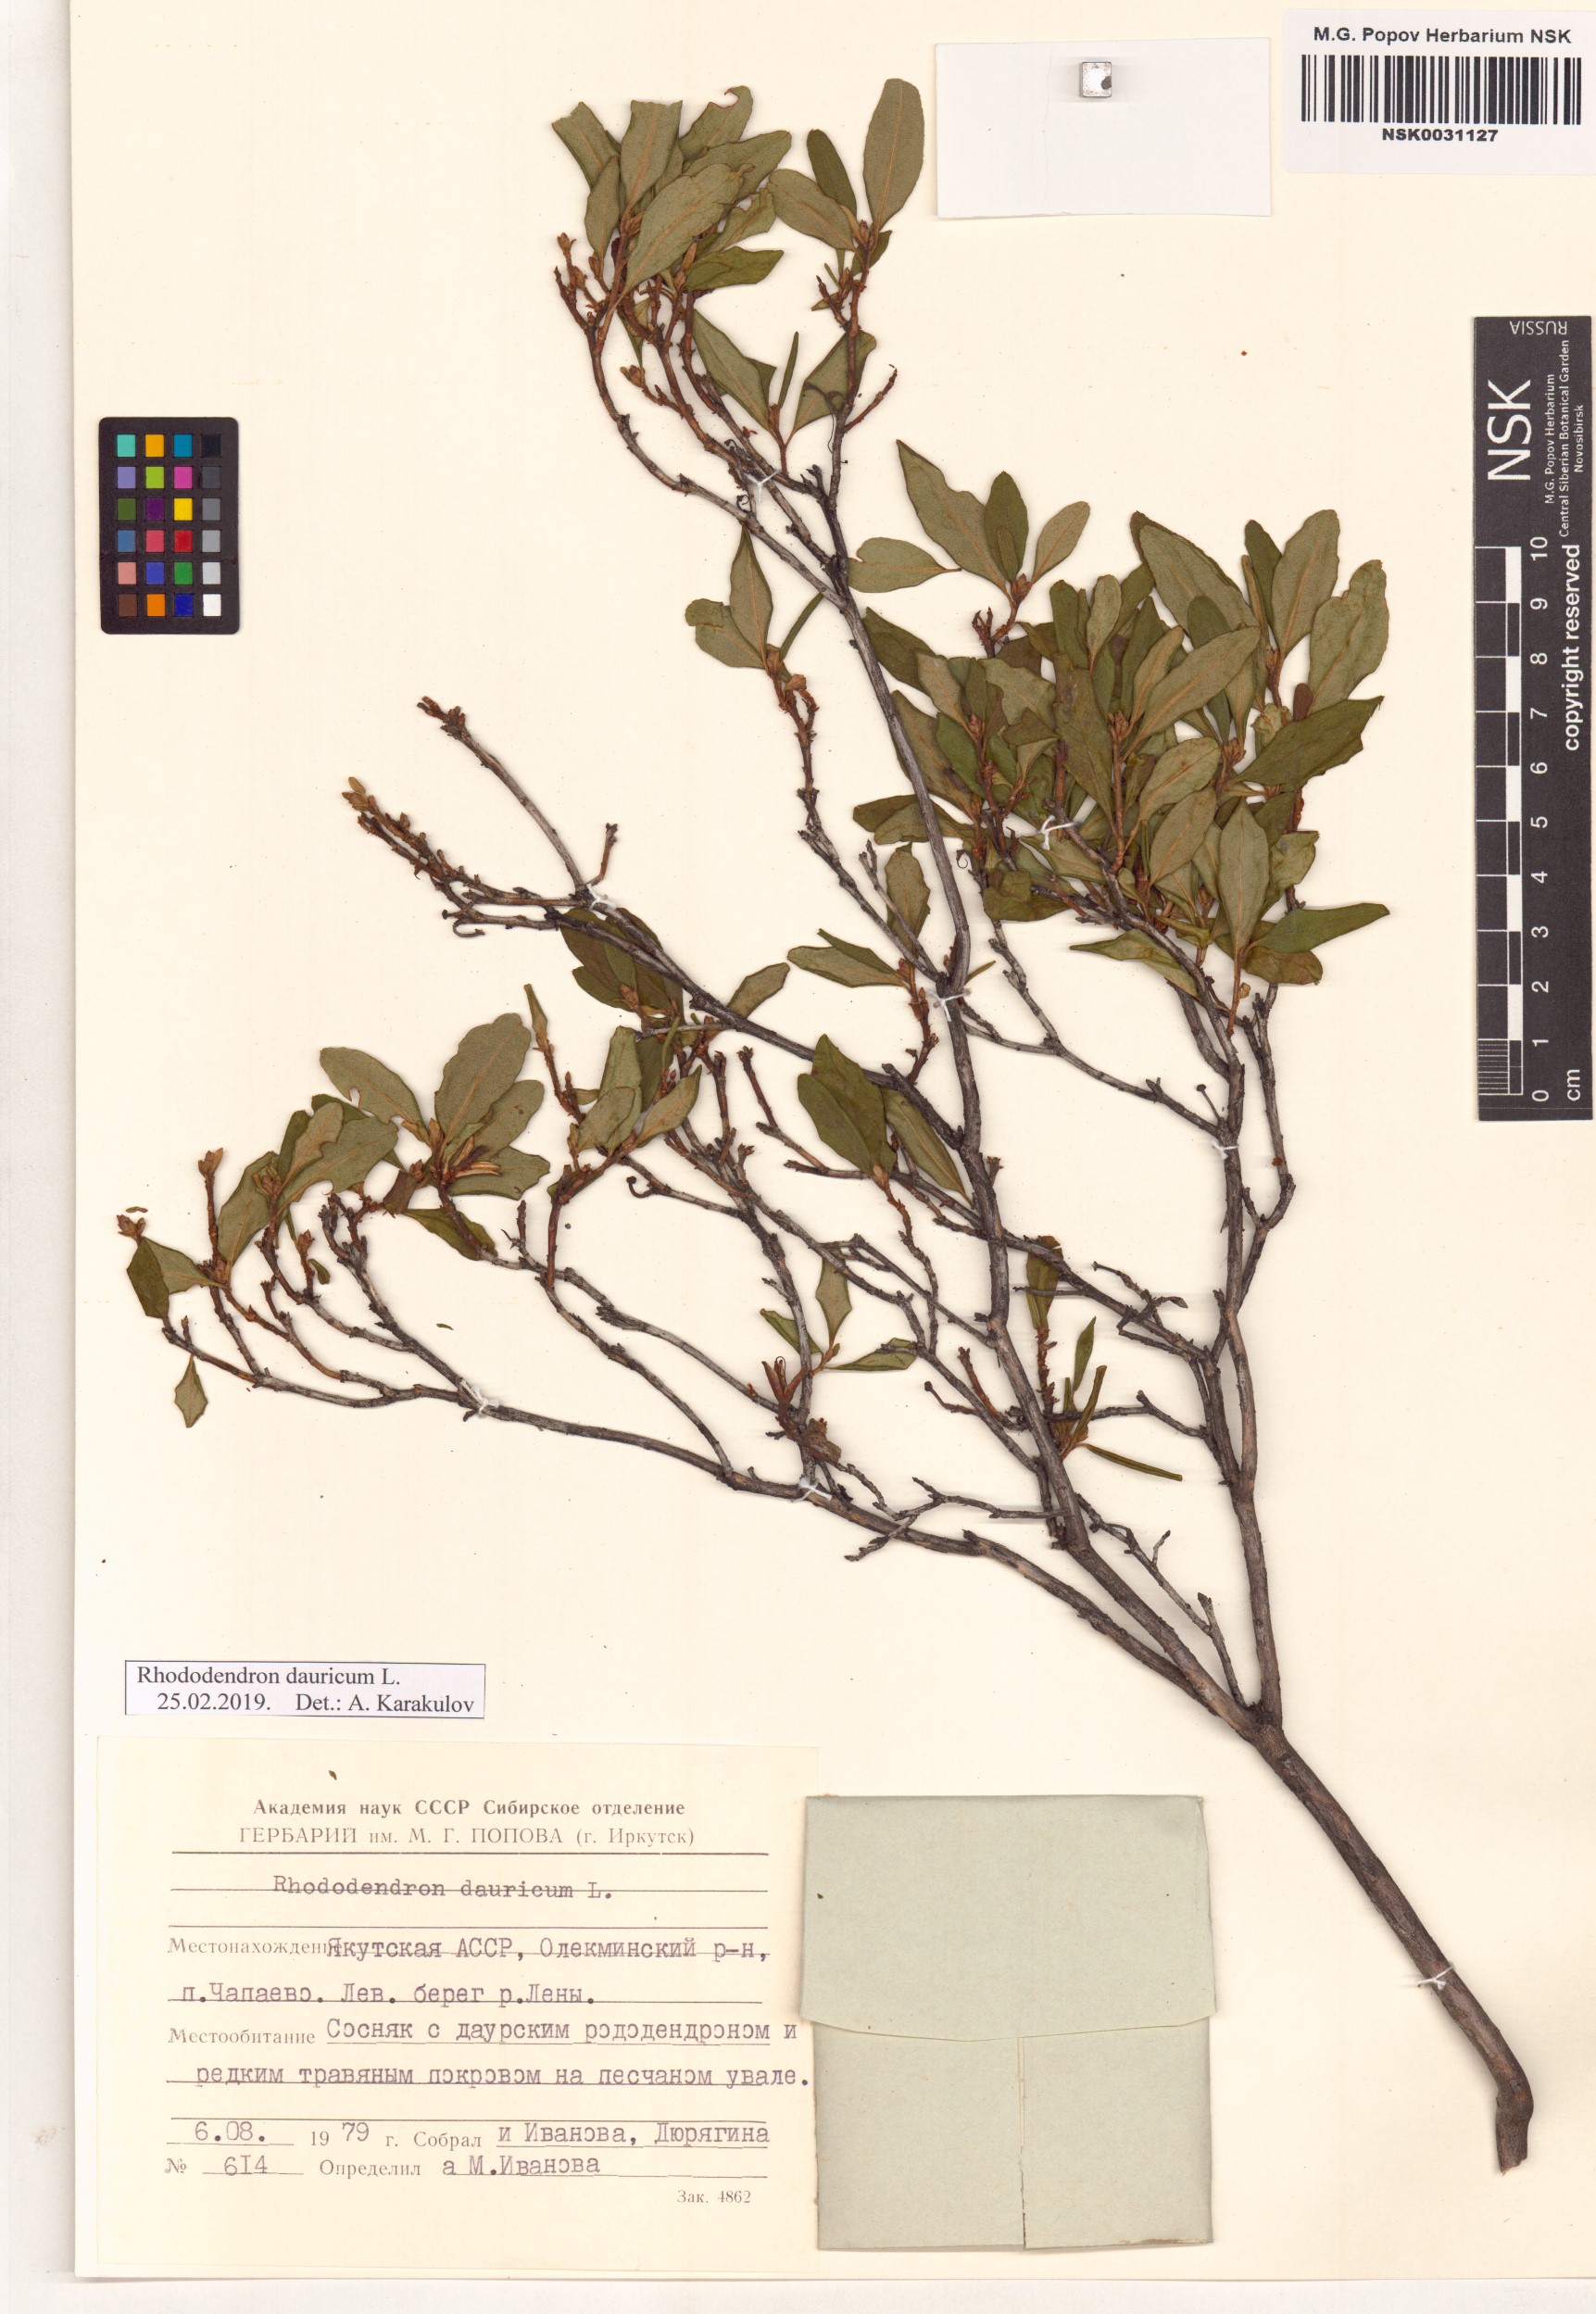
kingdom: Plantae
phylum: Tracheophyta
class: Magnoliopsida
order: Ericales
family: Ericaceae
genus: Rhododendron
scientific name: Rhododendron dauricum
